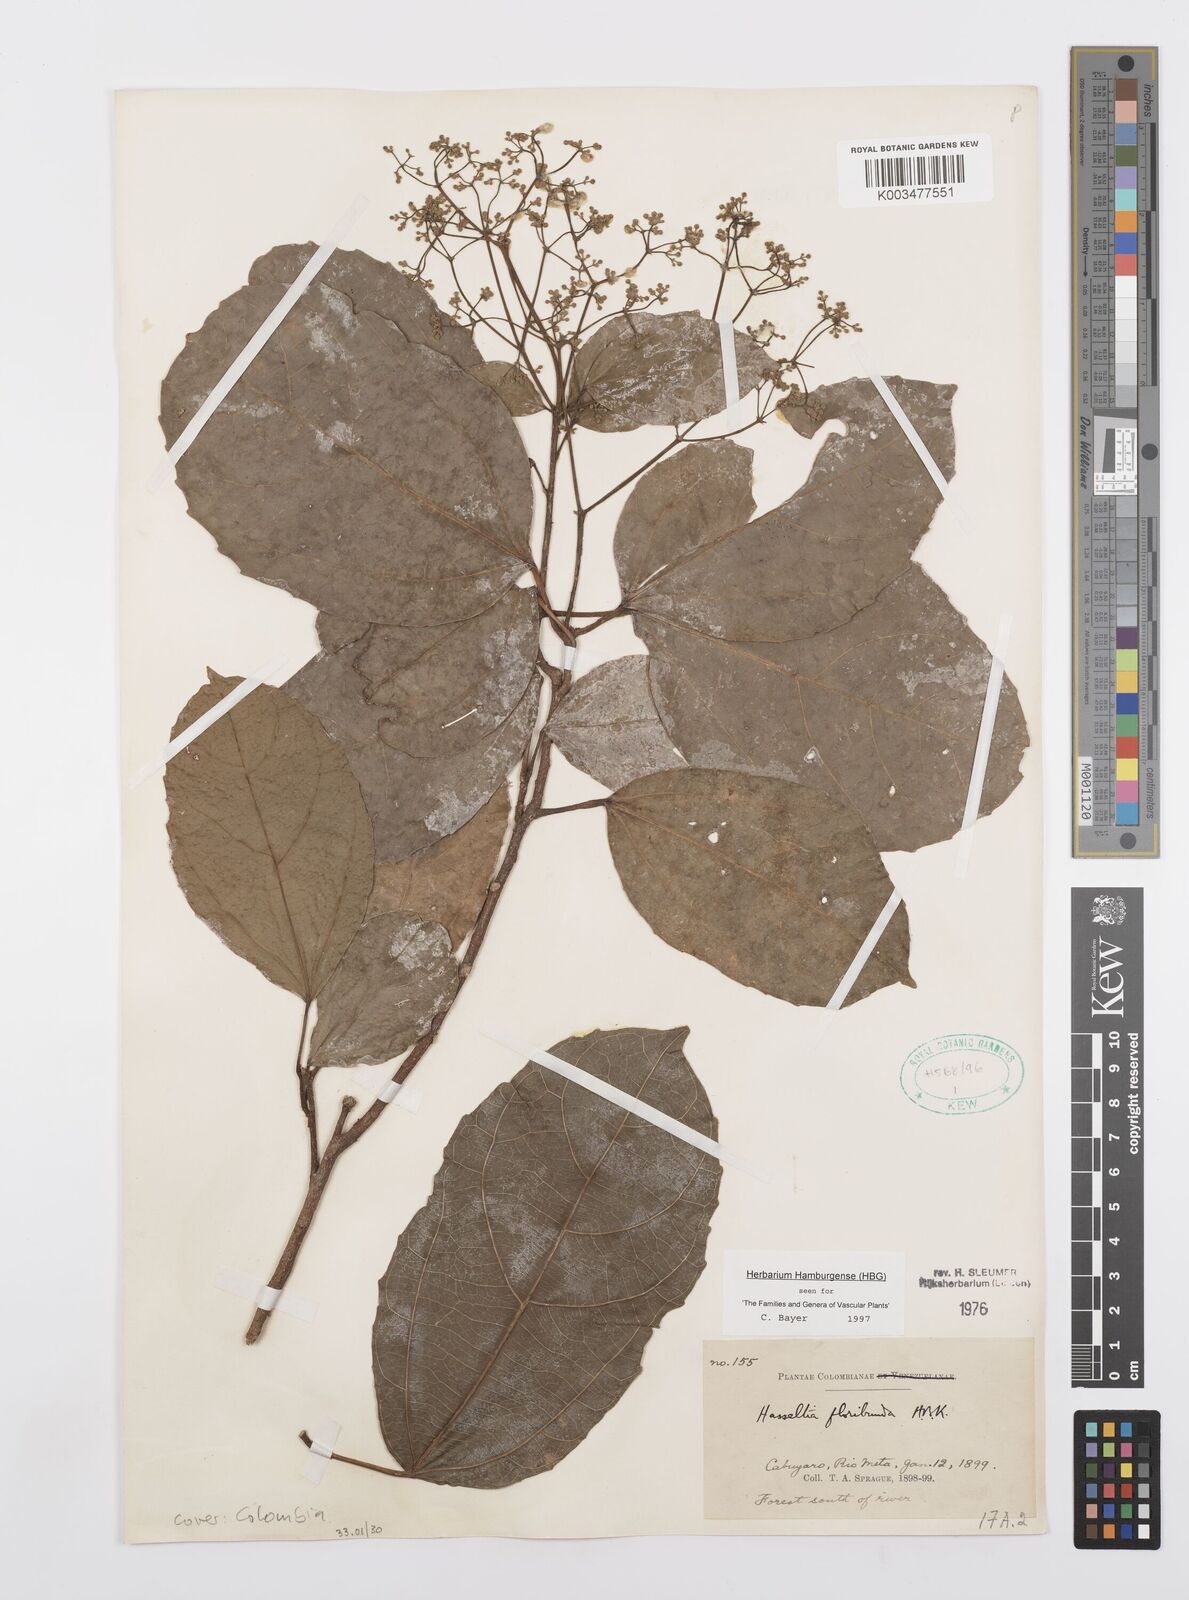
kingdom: Plantae
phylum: Tracheophyta
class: Magnoliopsida
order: Malpighiales
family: Salicaceae
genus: Hasseltia
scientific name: Hasseltia floribunda
